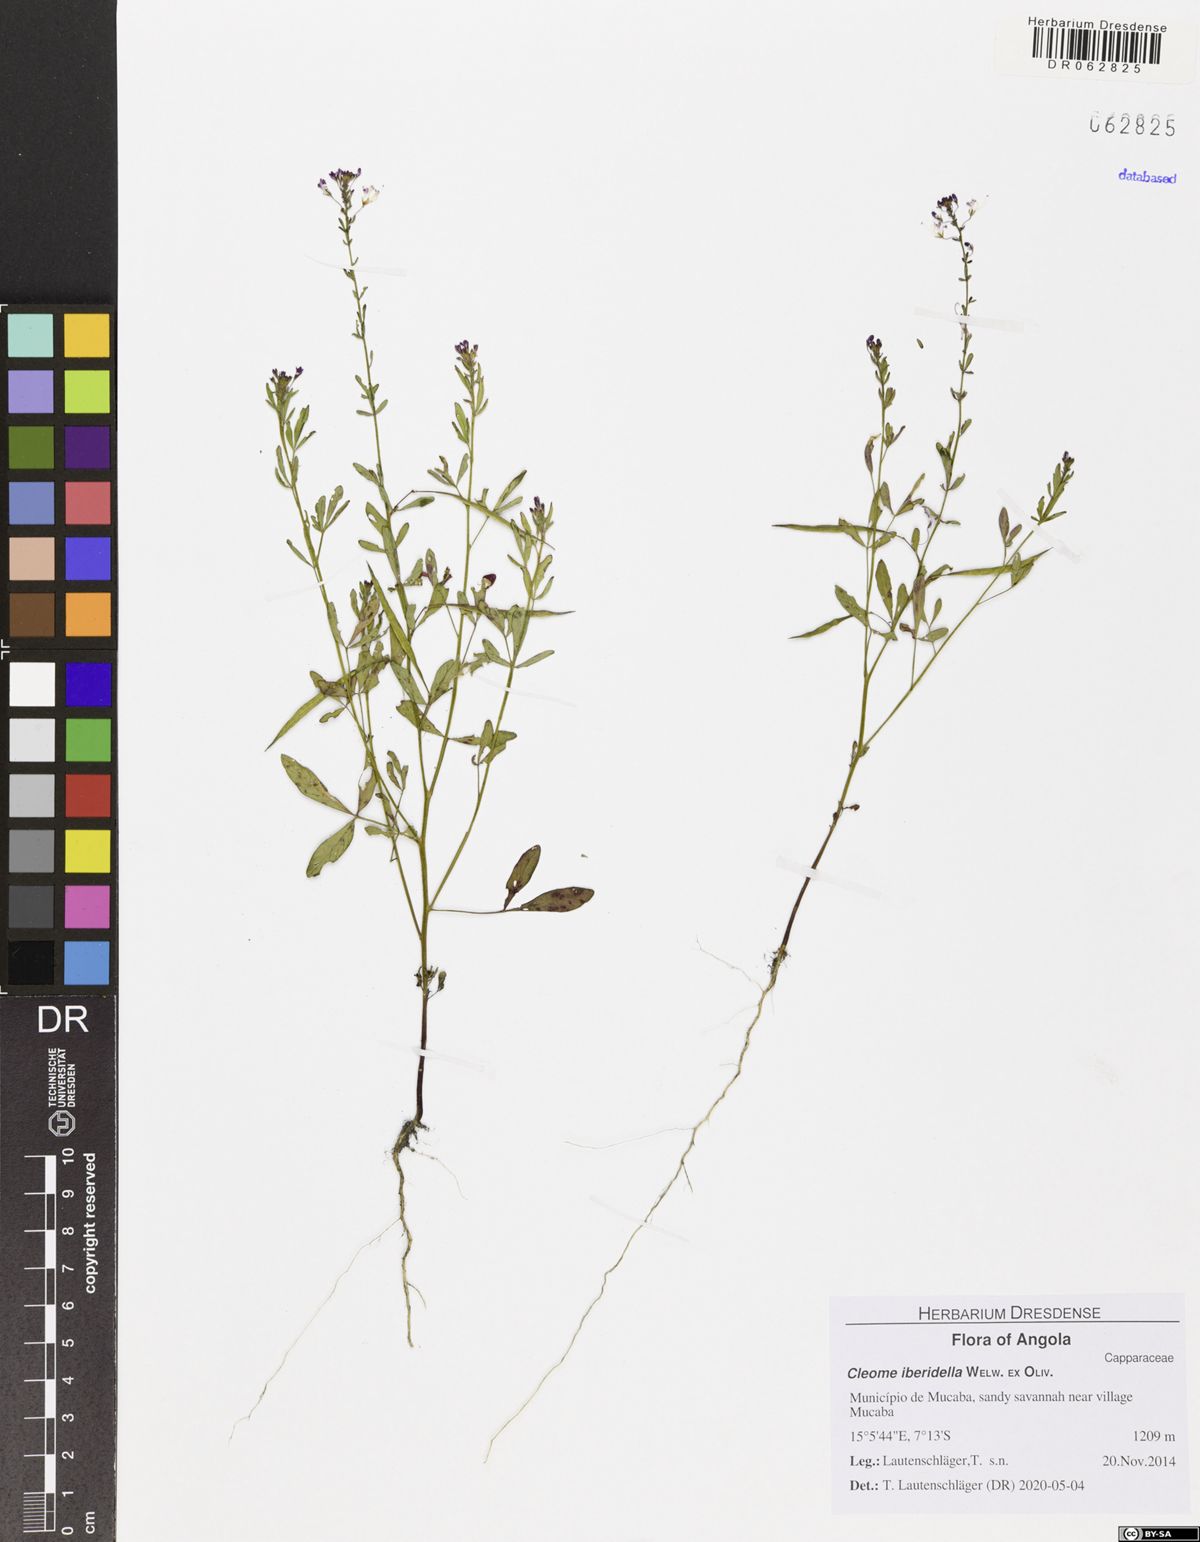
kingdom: Plantae
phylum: Tracheophyta
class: Magnoliopsida
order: Brassicales
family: Cleomaceae
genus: Sieruela
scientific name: Sieruela iberidella
